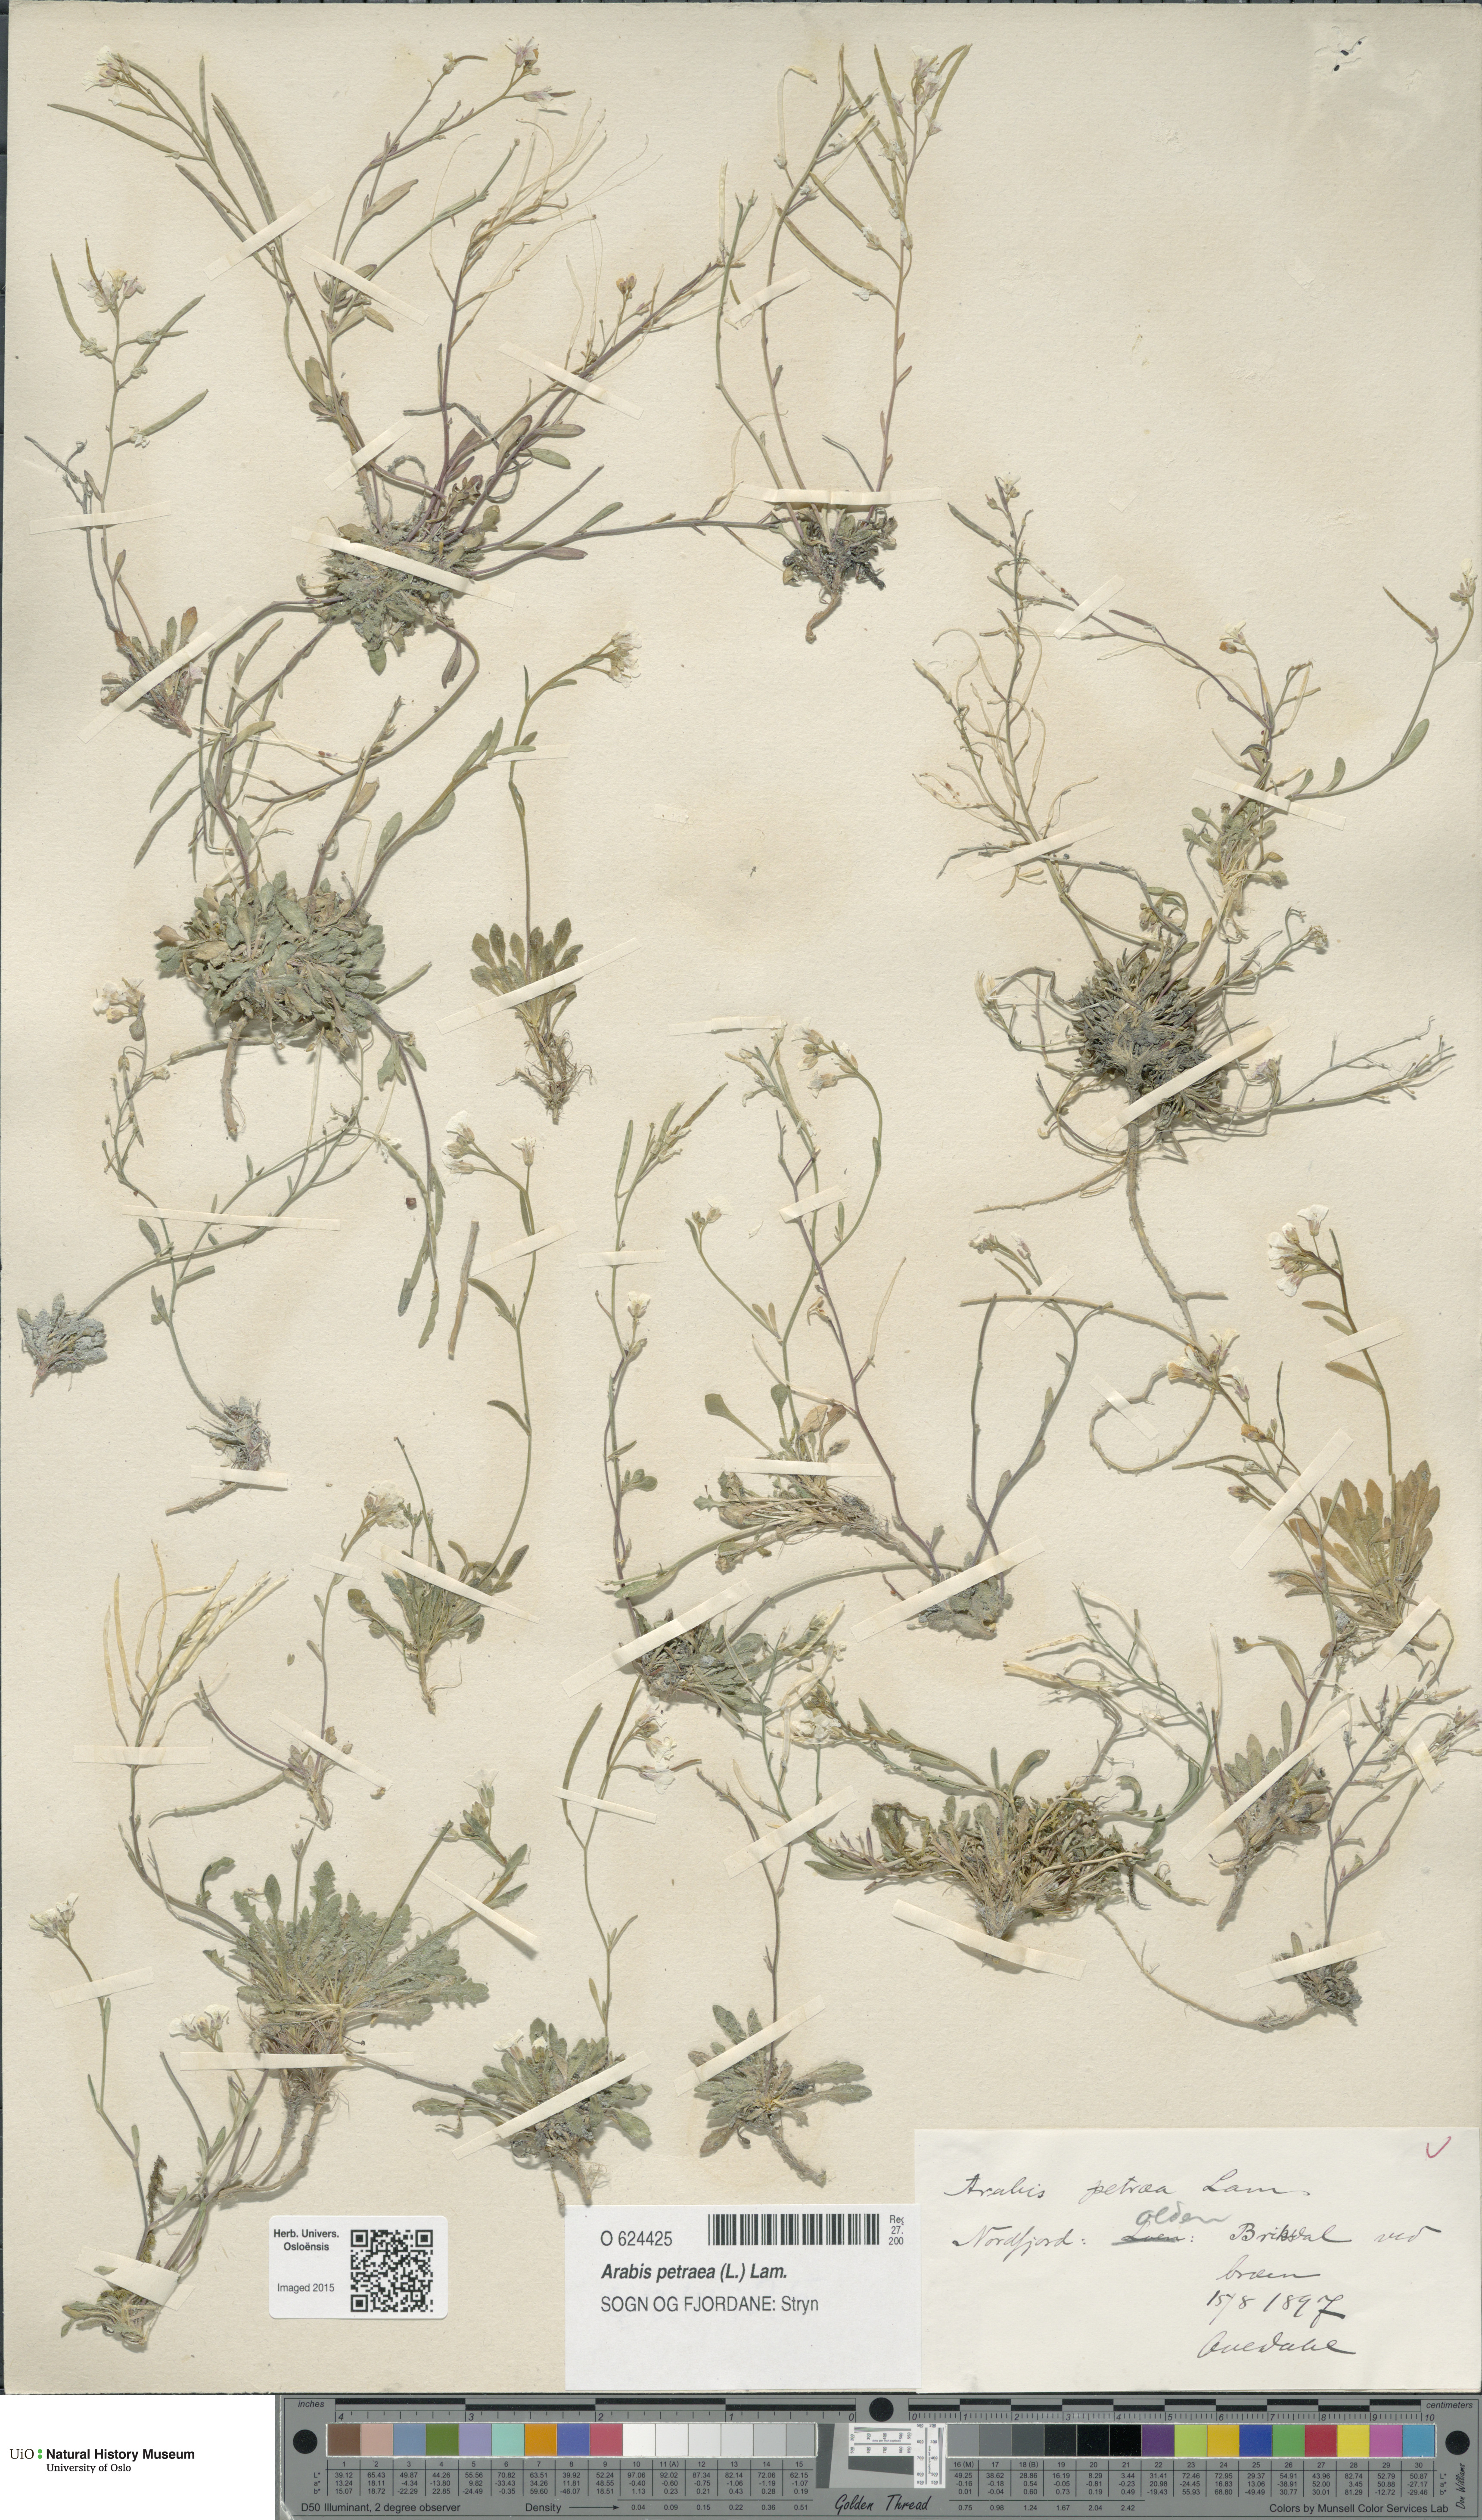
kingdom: Plantae
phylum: Tracheophyta
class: Magnoliopsida
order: Brassicales
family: Brassicaceae
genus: Arabidopsis
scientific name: Arabidopsis petraea
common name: Northern rock-cress
